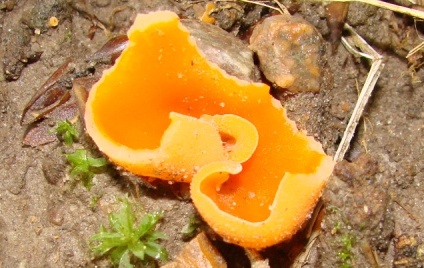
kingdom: Fungi
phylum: Ascomycota
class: Pezizomycetes
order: Pezizales
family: Pyronemataceae
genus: Aleuria
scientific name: Aleuria aurantia
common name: almindelig orangebæger
